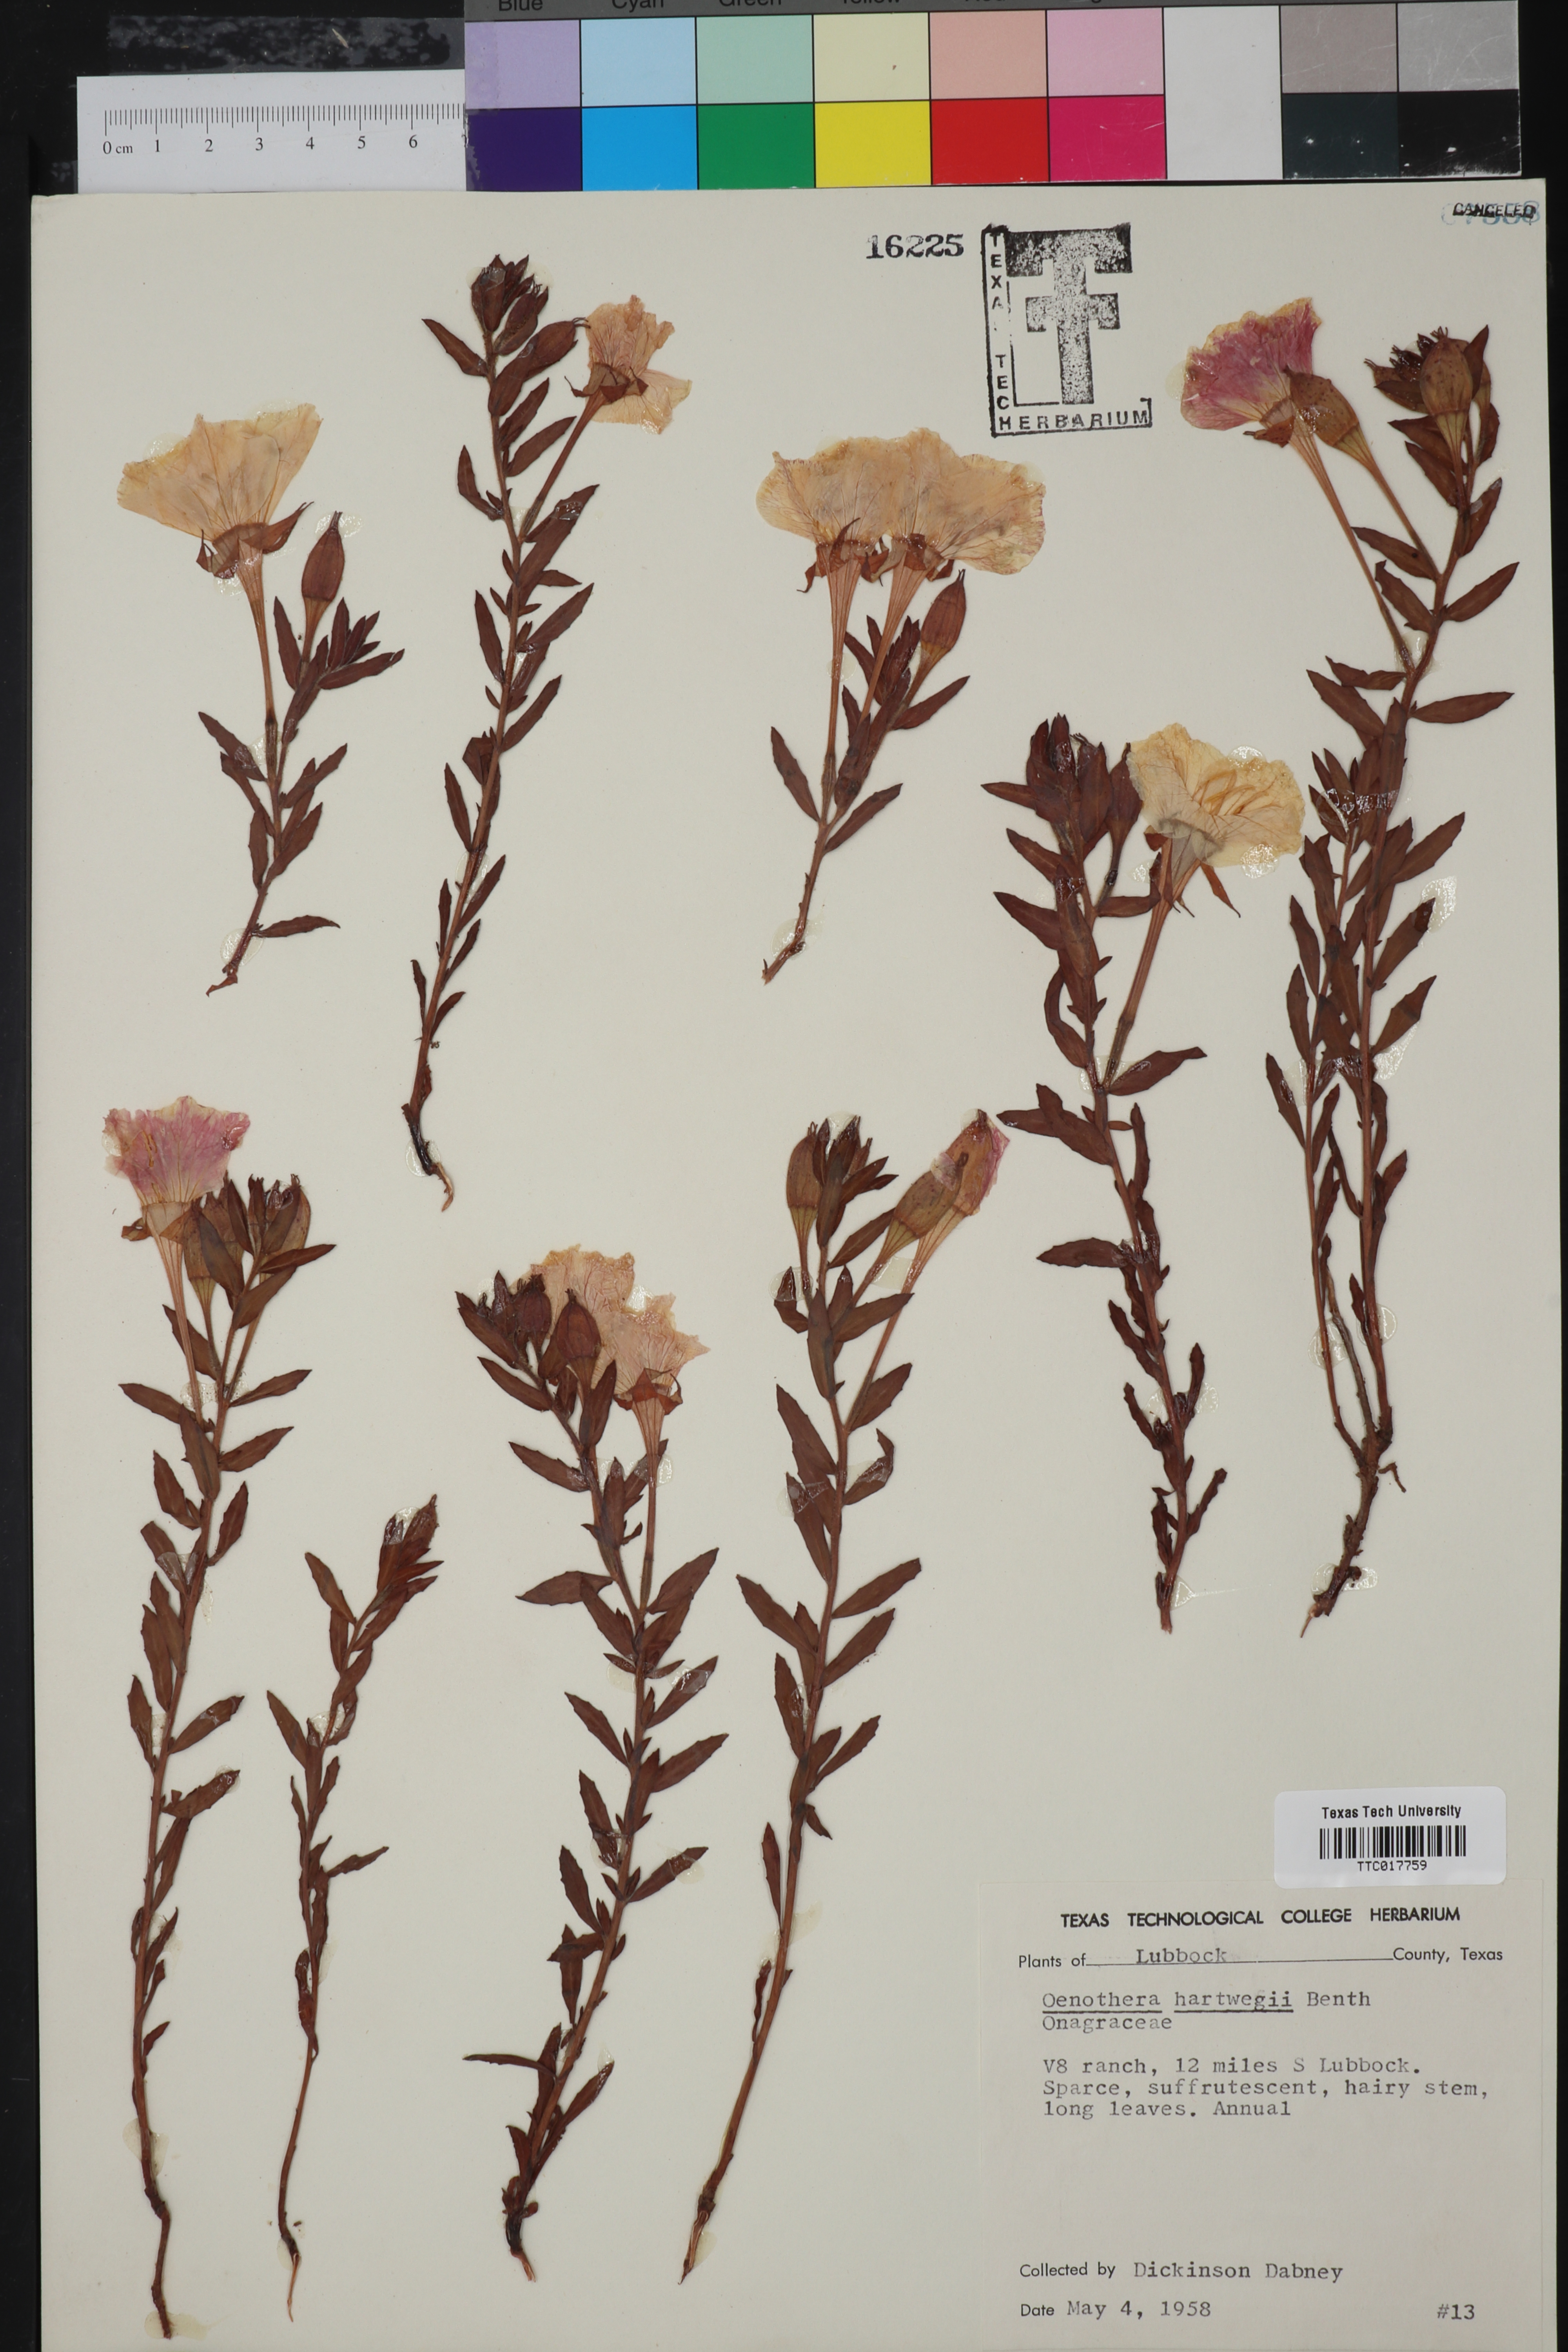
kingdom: Plantae
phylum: Tracheophyta
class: Magnoliopsida
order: Myrtales
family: Onagraceae
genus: Oenothera
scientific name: Oenothera hartwegii
